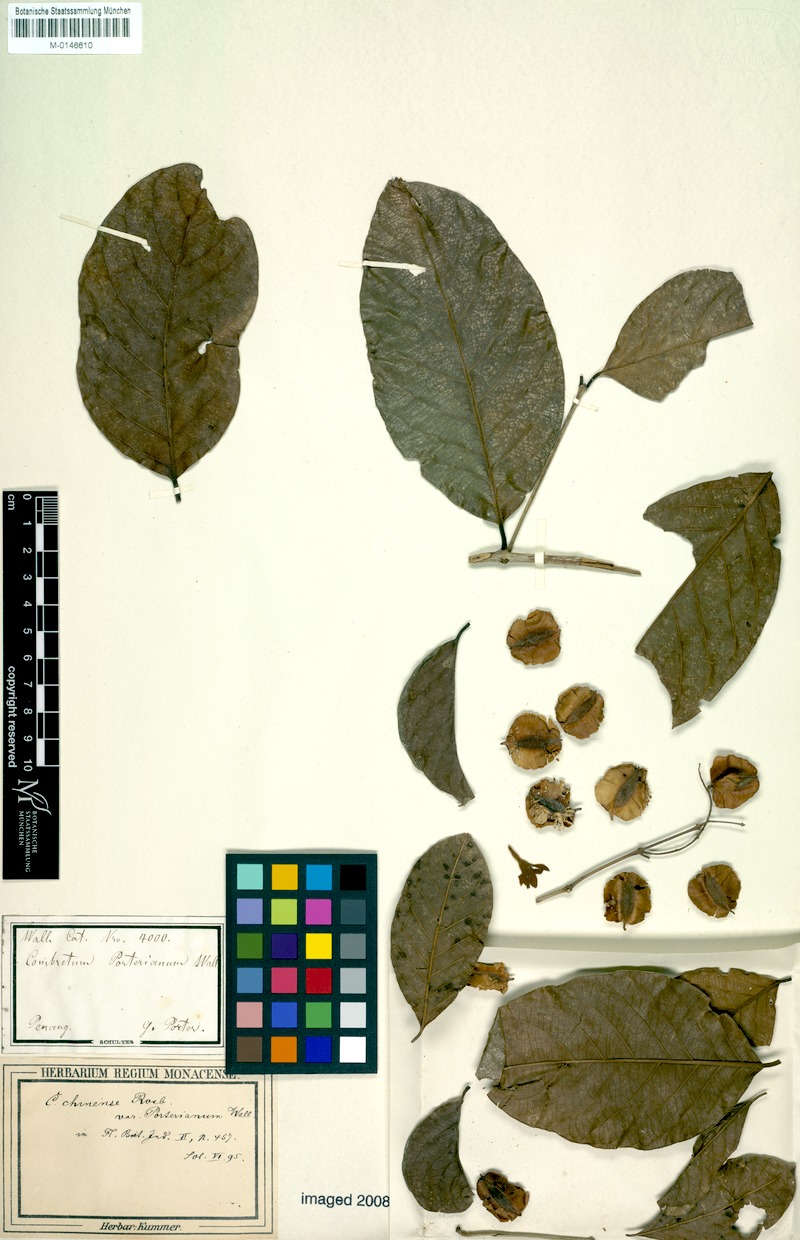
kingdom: Plantae
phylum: Tracheophyta
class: Magnoliopsida
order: Myrtales
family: Combretaceae
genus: Combretum
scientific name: Combretum porterianum
